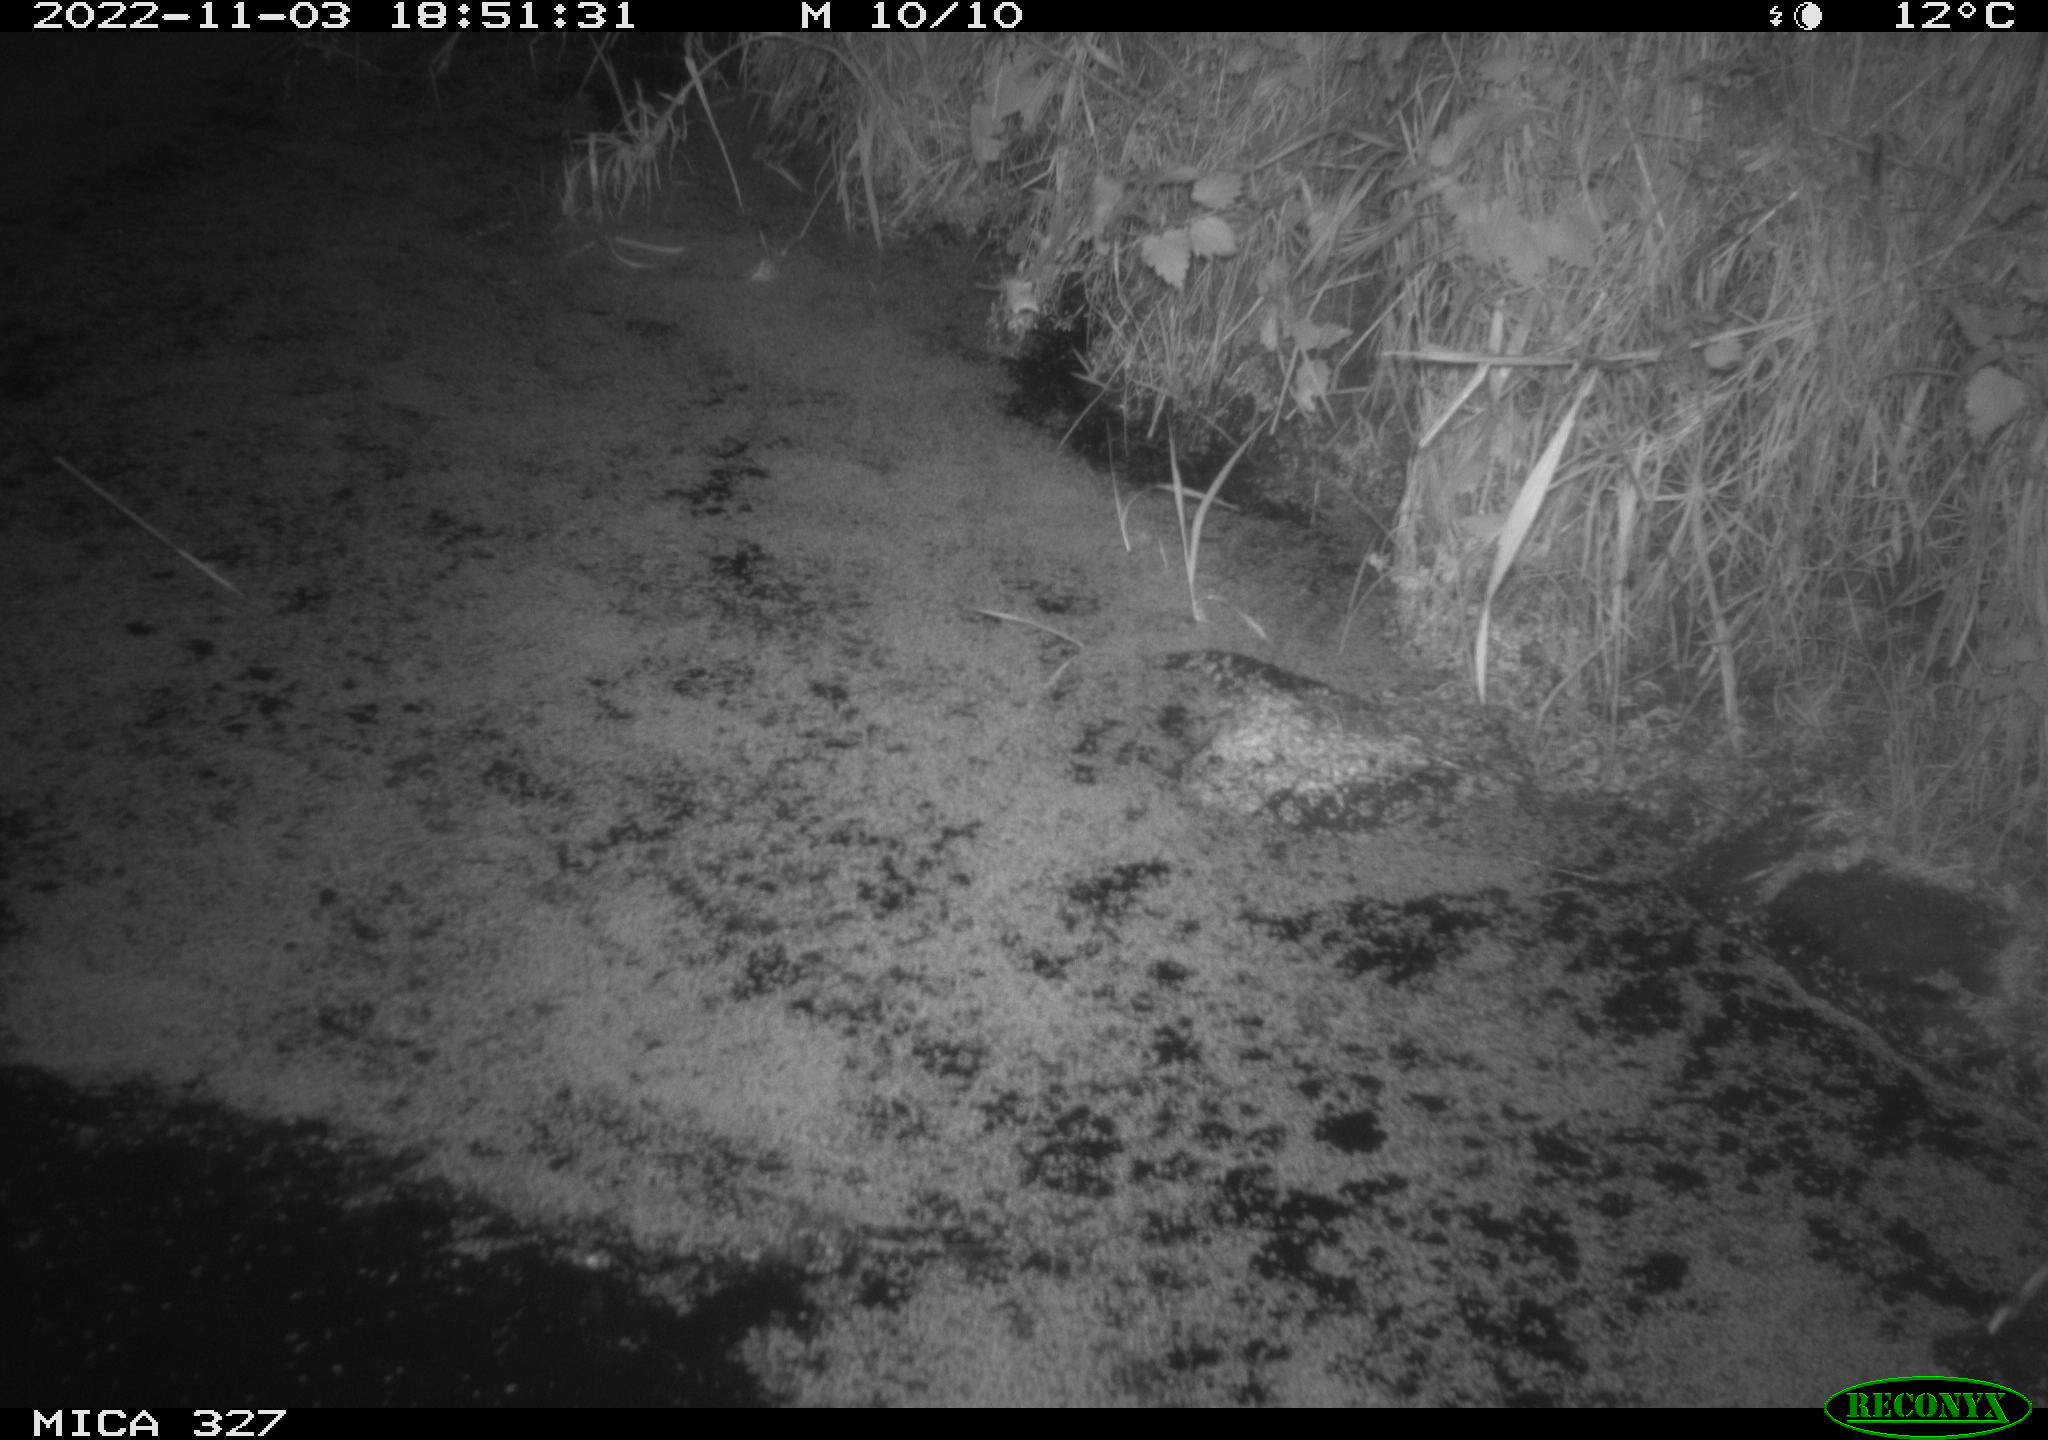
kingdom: Animalia
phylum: Chordata
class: Mammalia
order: Rodentia
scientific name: Rodentia
